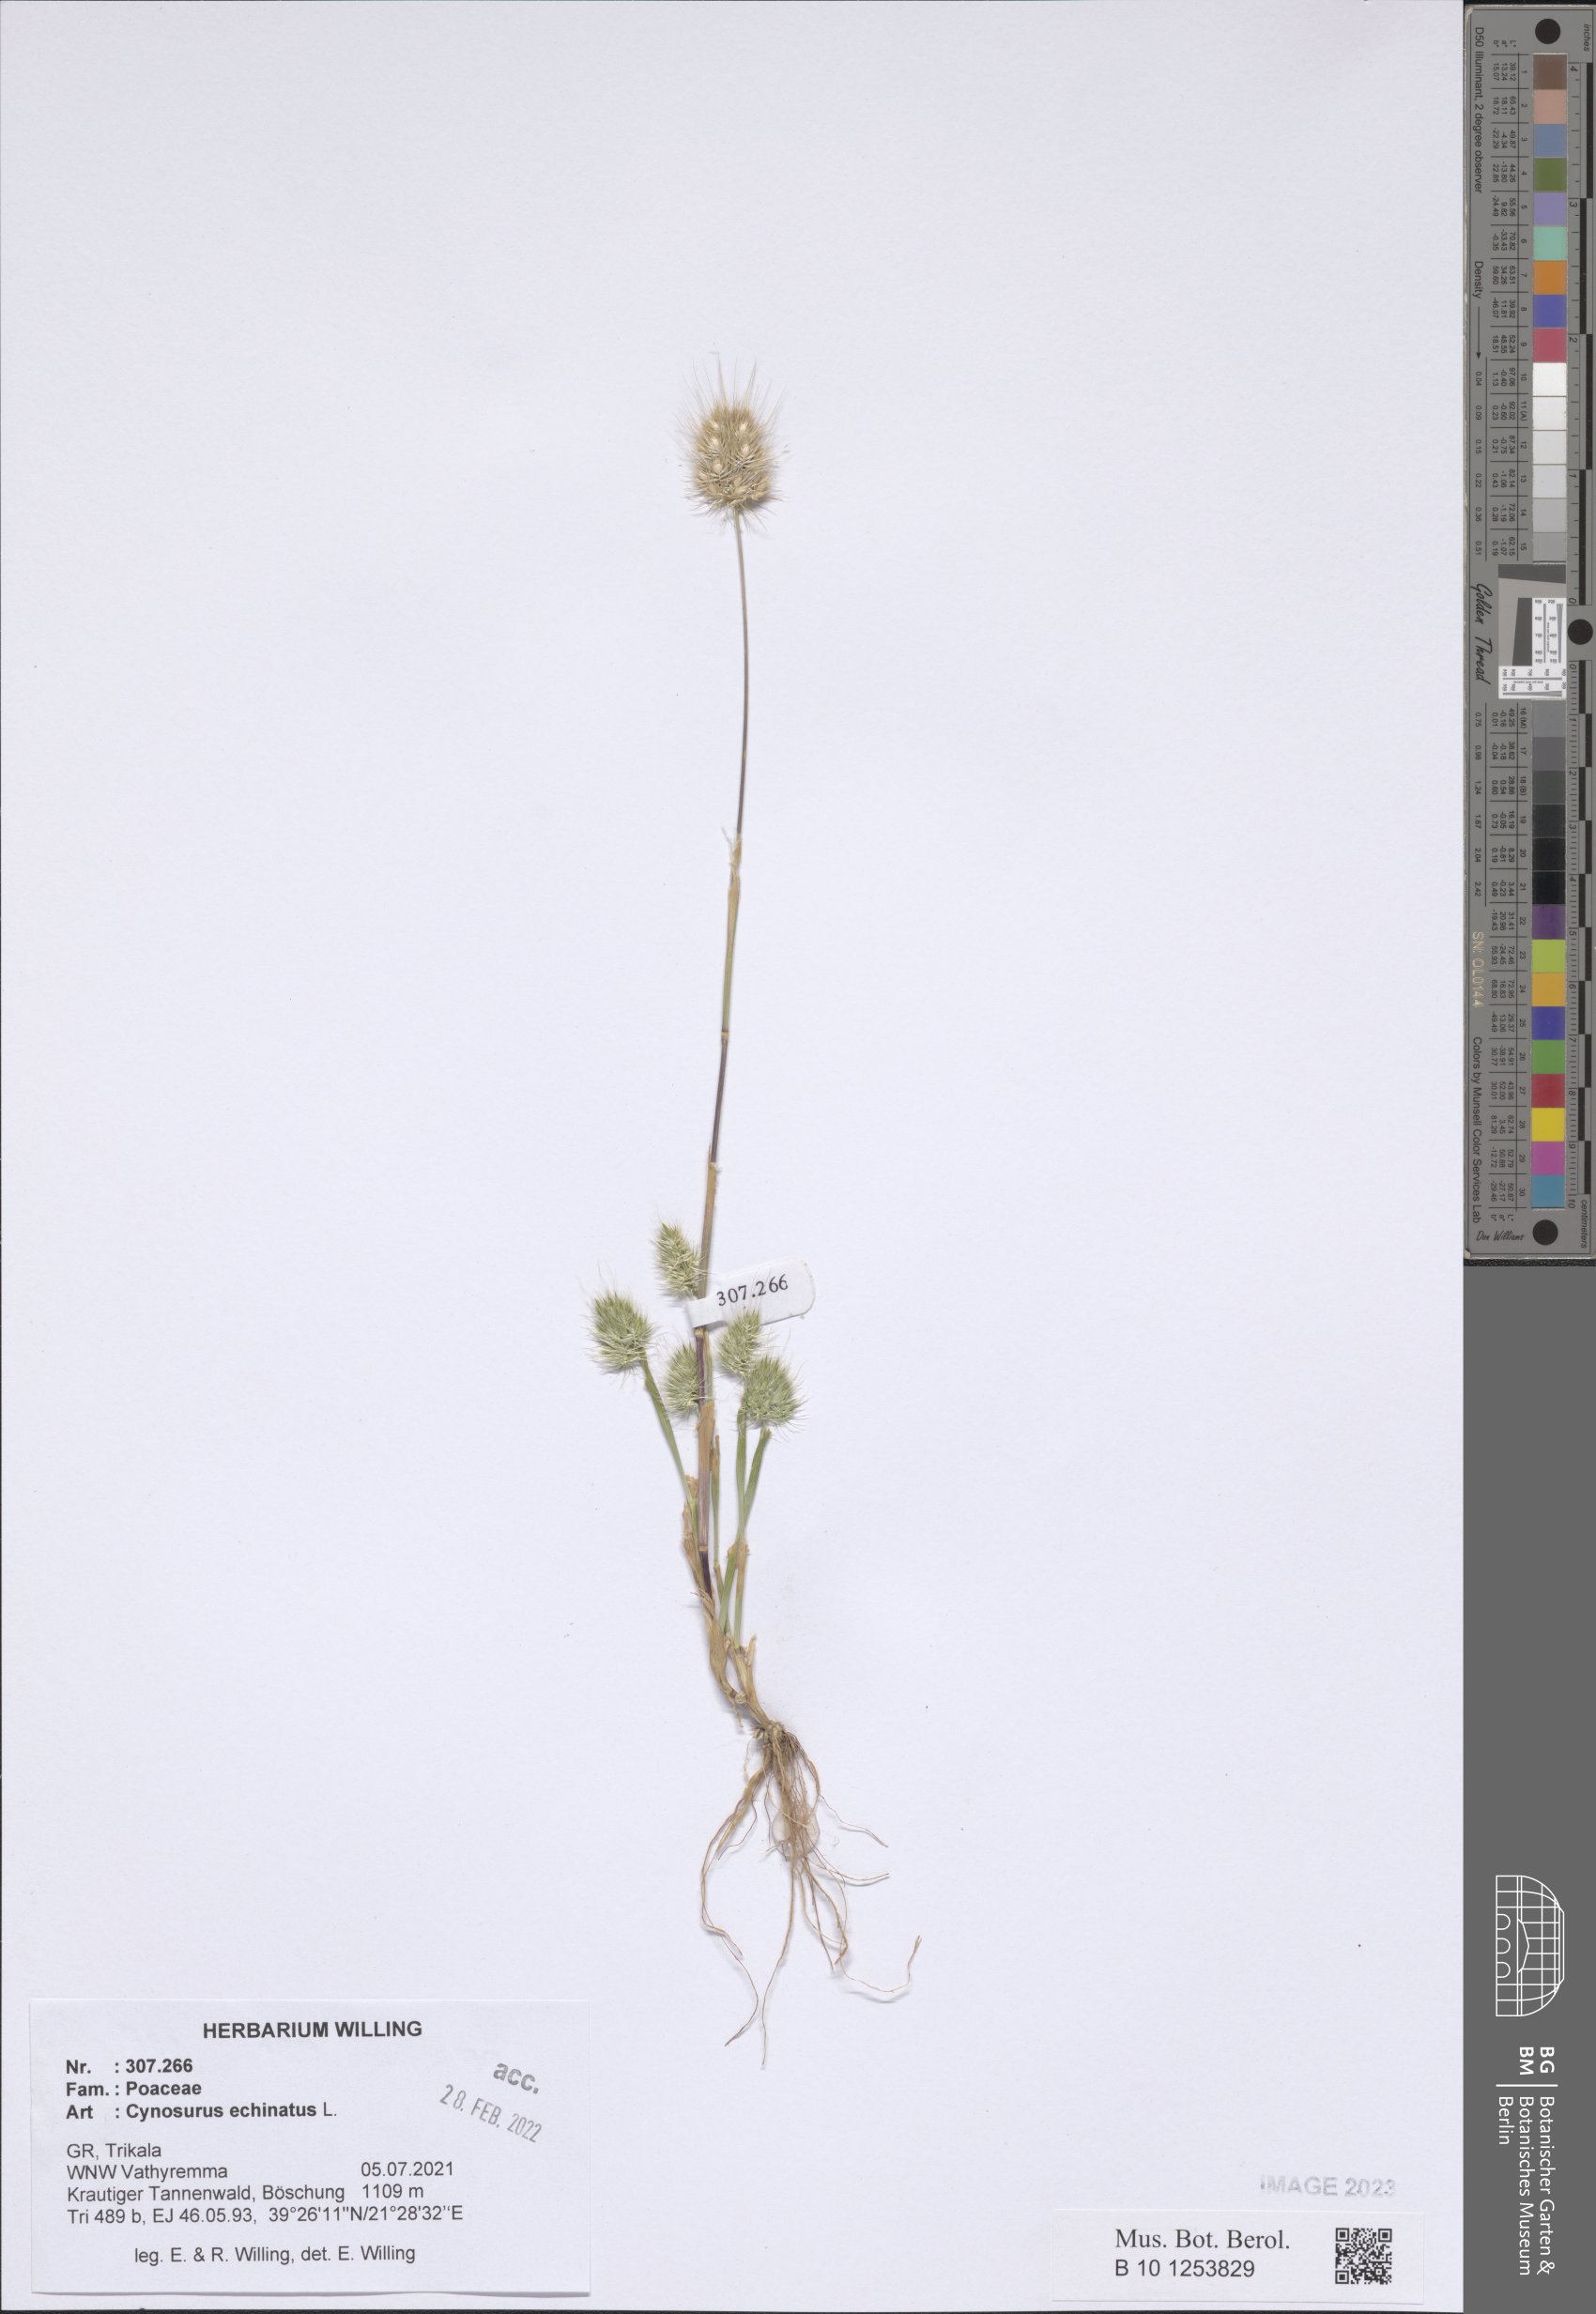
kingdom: Plantae
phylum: Tracheophyta
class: Liliopsida
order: Poales
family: Poaceae
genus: Cynosurus
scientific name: Cynosurus echinatus
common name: Rough dog's-tail
